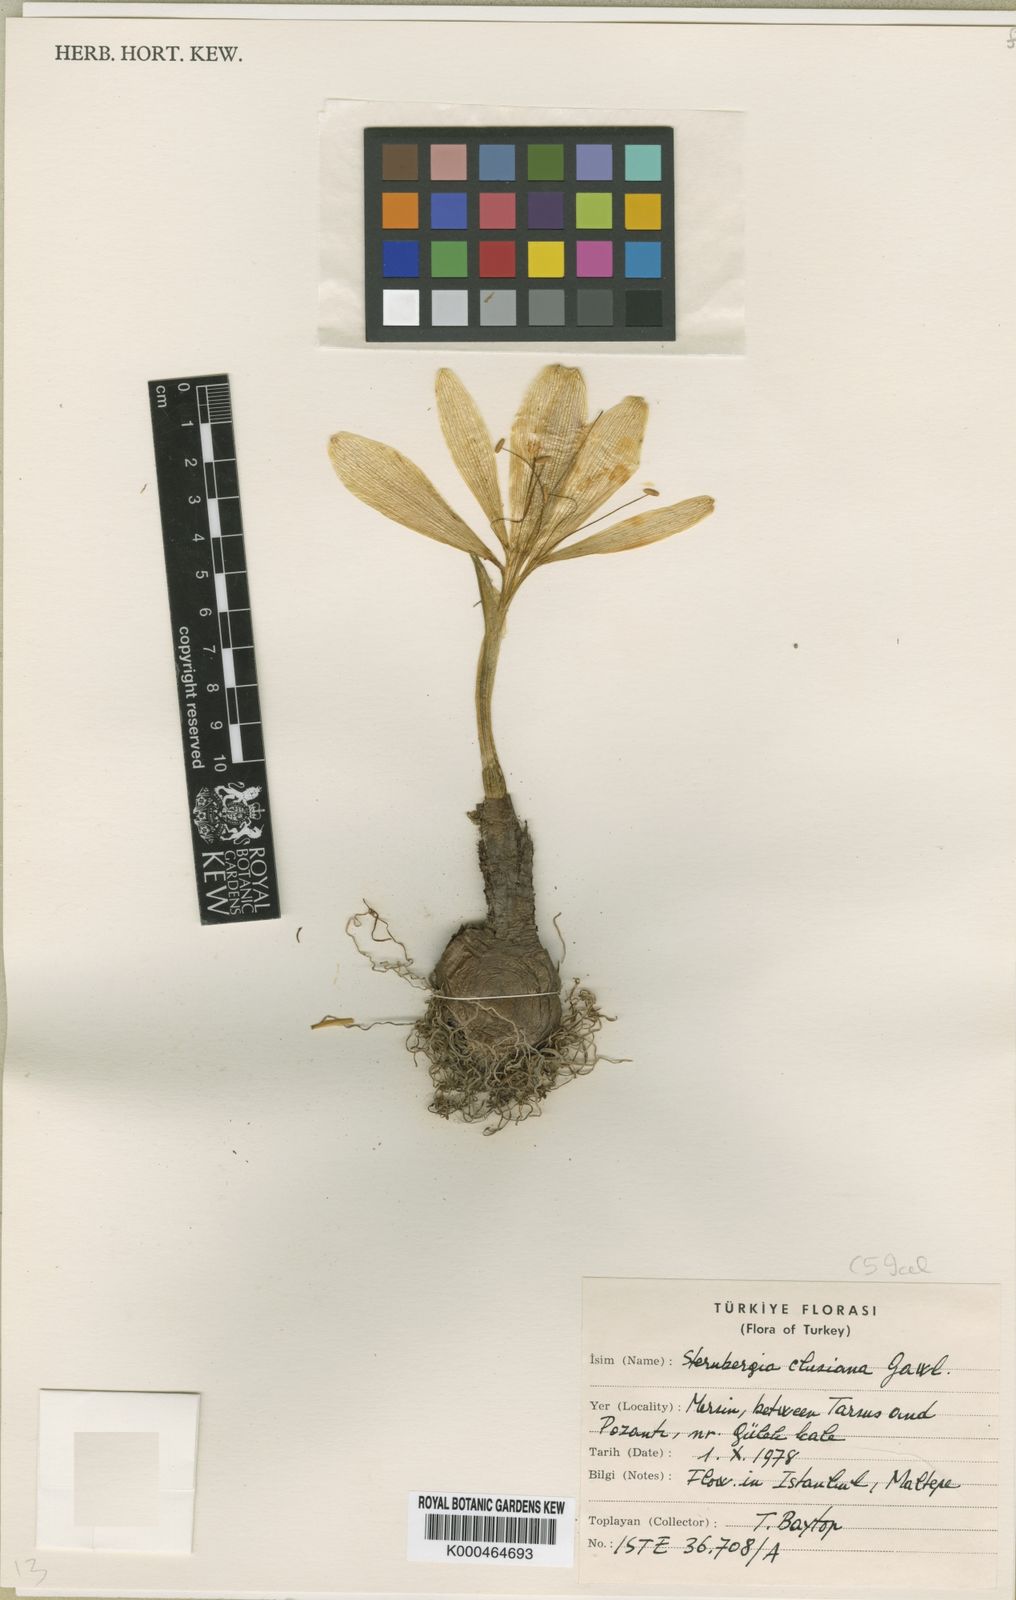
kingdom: Plantae
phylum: Tracheophyta
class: Liliopsida
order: Asparagales
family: Amaryllidaceae
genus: Sternbergia
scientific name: Sternbergia
